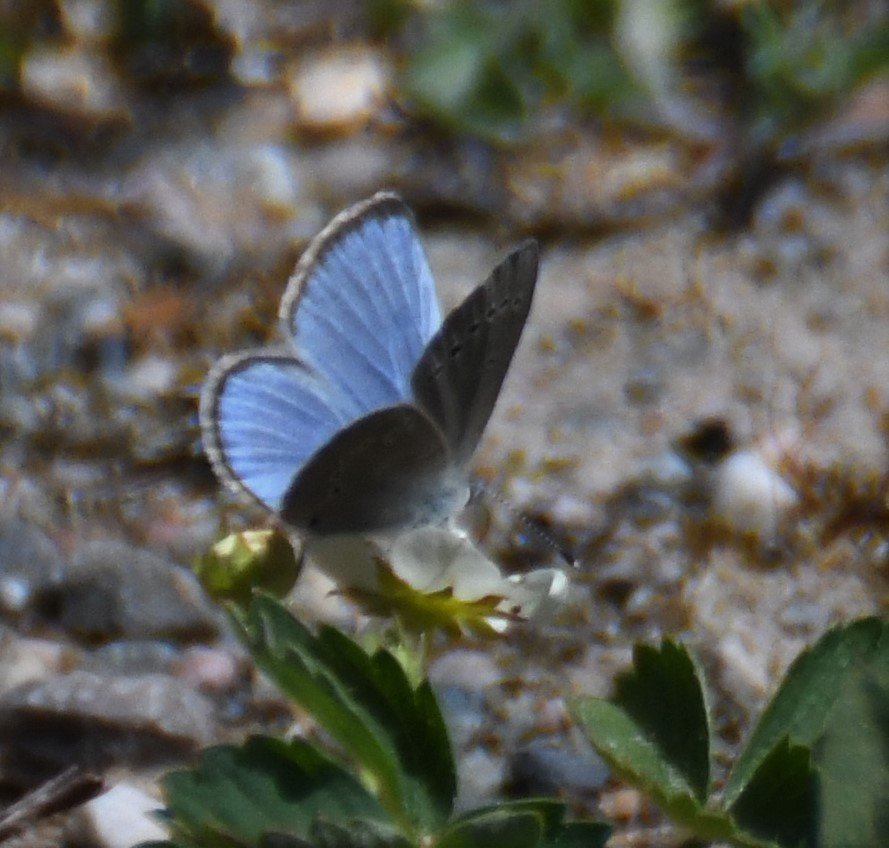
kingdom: Animalia
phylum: Arthropoda
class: Insecta
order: Lepidoptera
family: Lycaenidae
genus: Glaucopsyche
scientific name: Glaucopsyche lygdamus
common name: Silvery Blue
